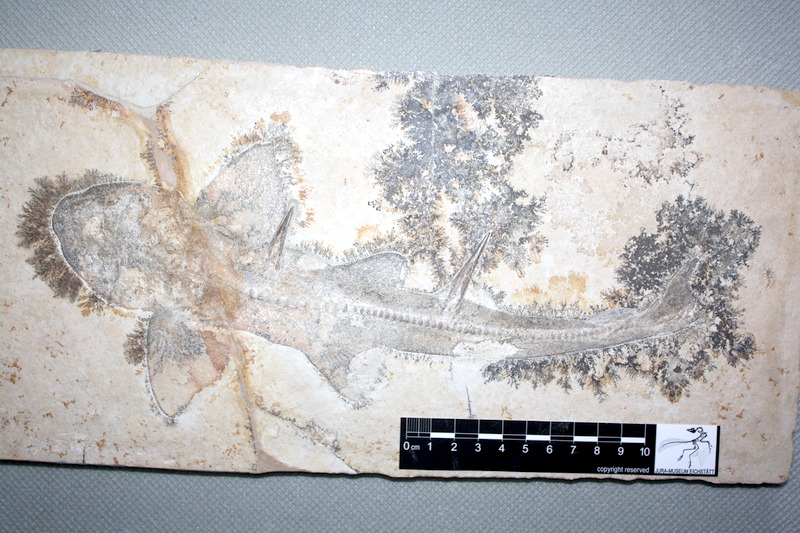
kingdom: Animalia
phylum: Chordata
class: Elasmobranchii
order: Heterodontiformes
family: Heterodontidae
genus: Paracestracion
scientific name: Paracestracion falcifer
